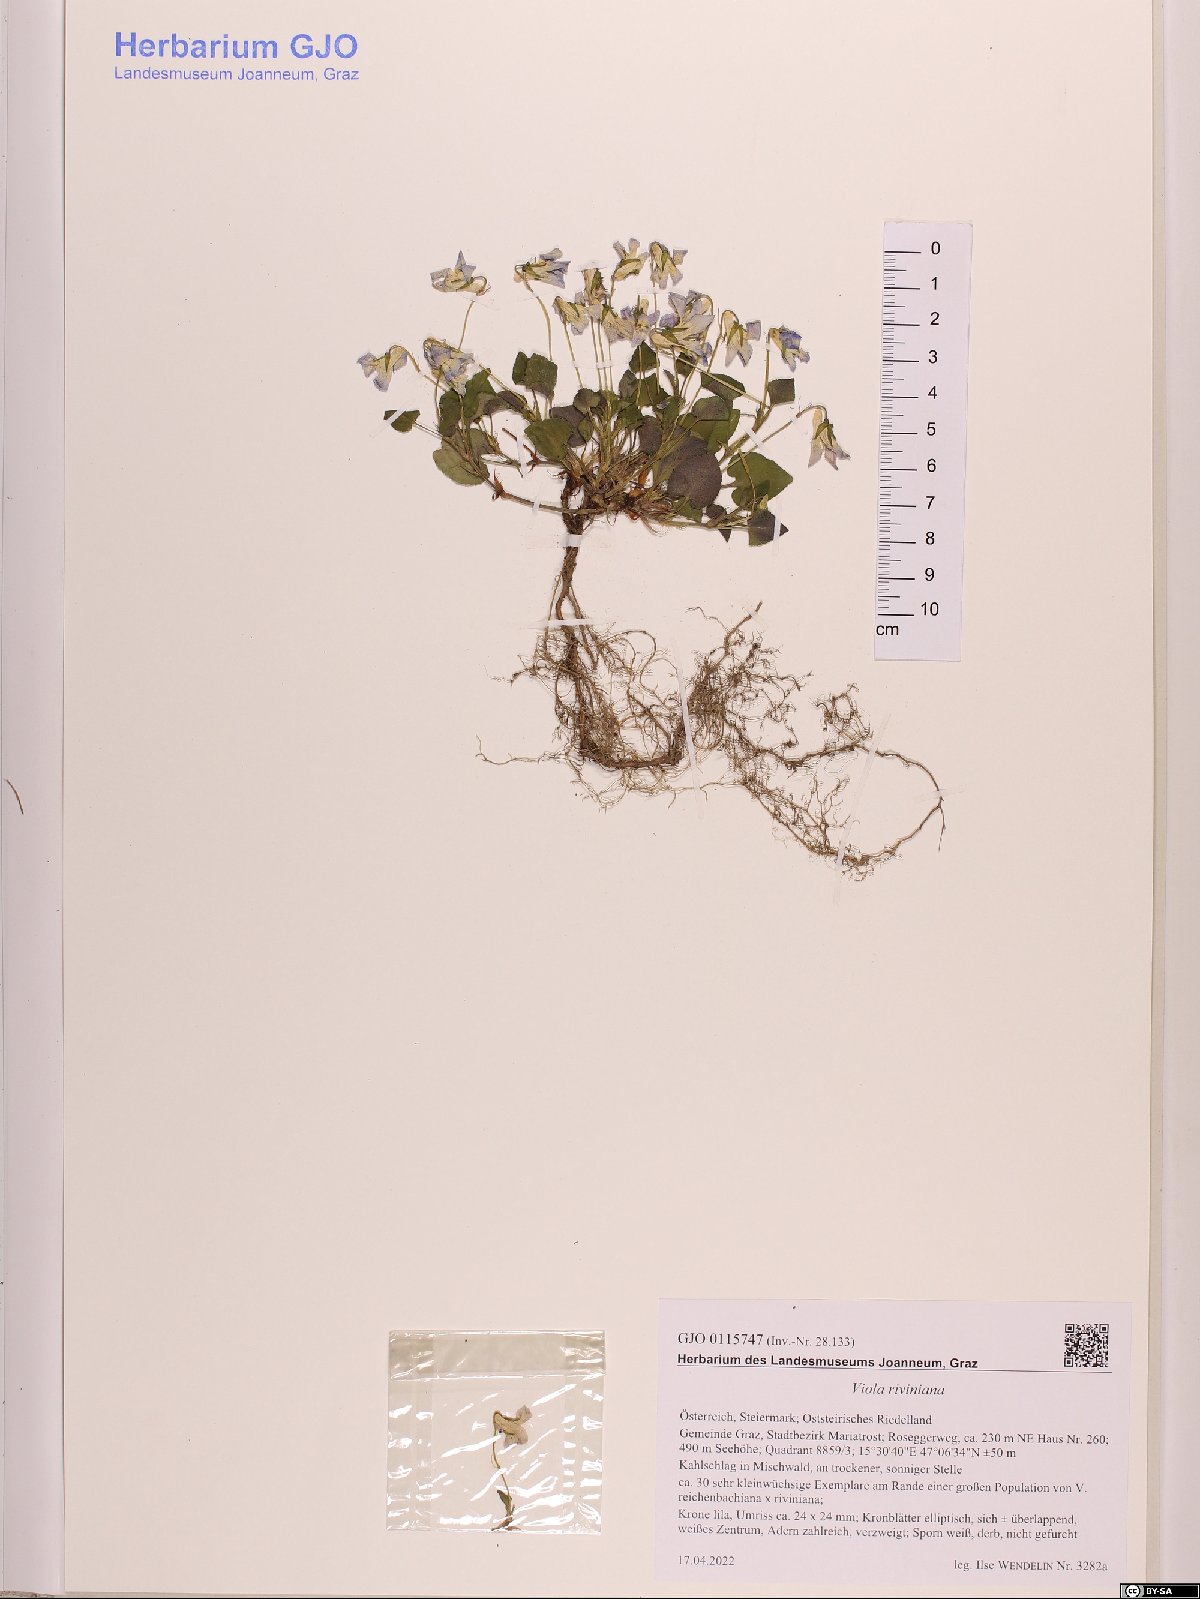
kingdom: Plantae
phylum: Tracheophyta
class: Magnoliopsida
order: Malpighiales
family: Violaceae
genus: Viola
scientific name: Viola riviniana
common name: Common dog-violet
